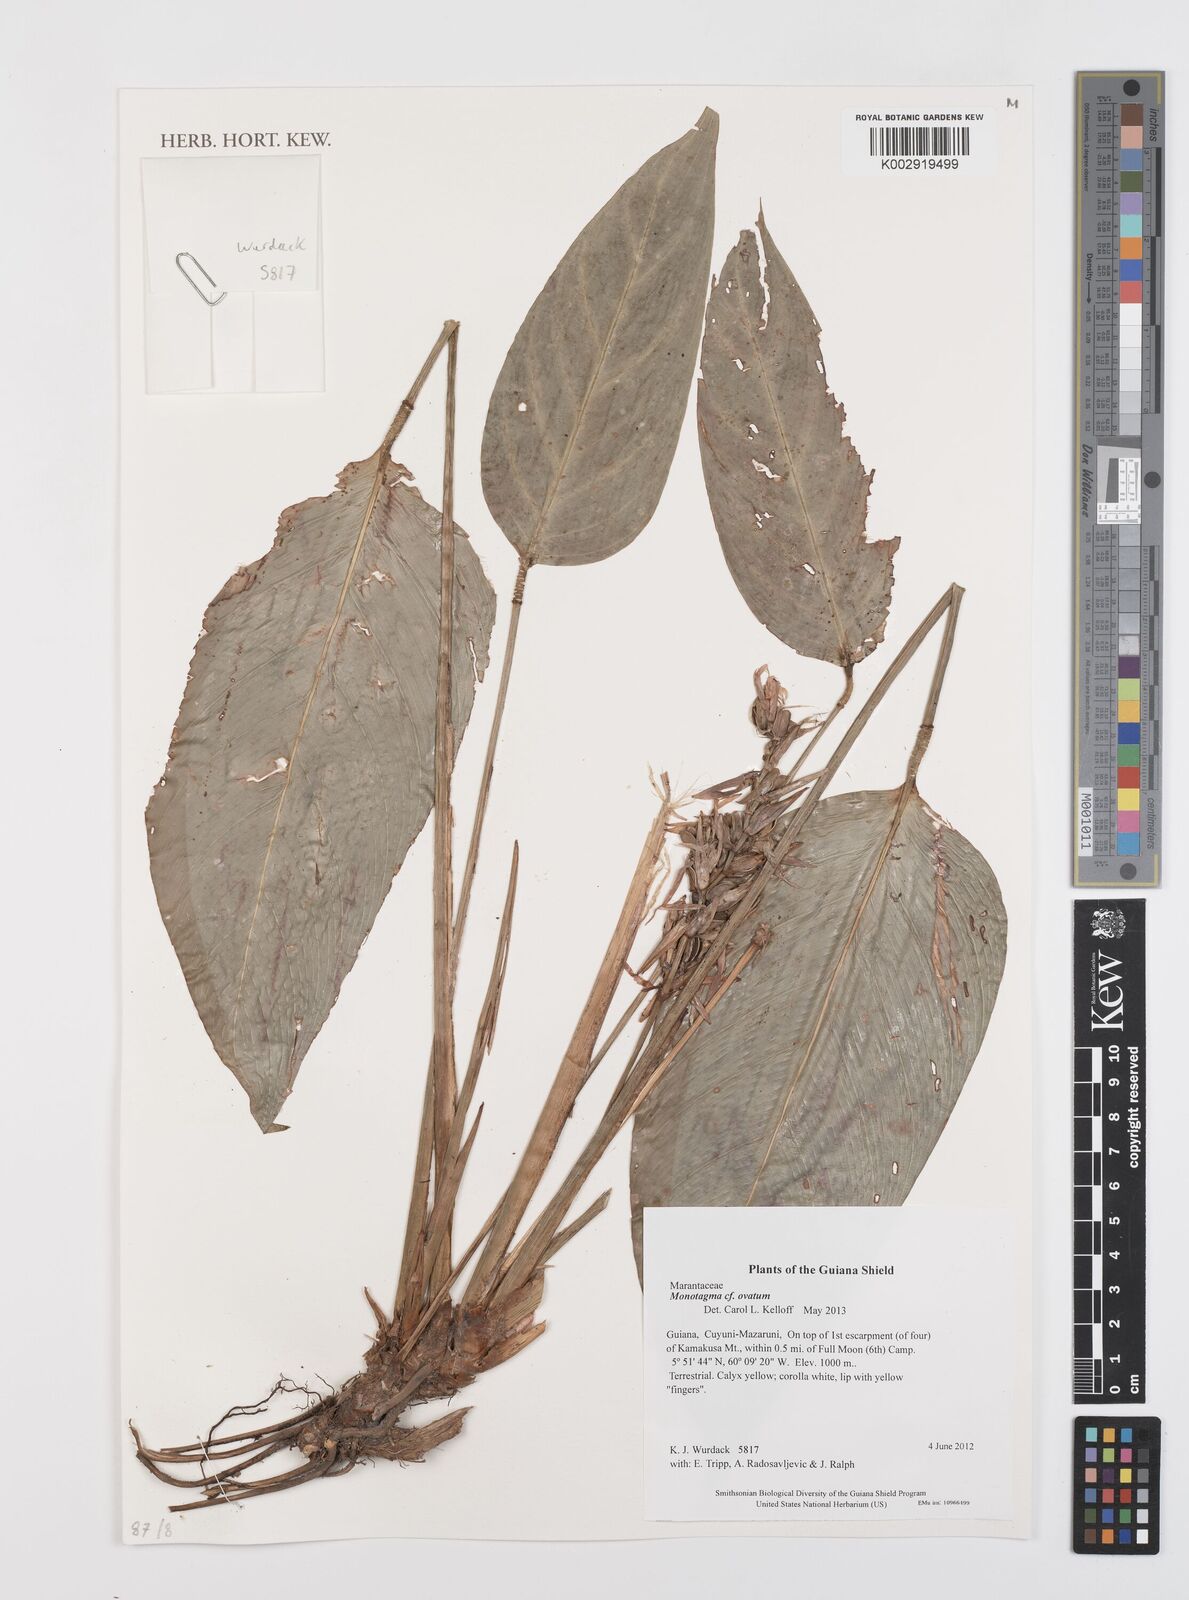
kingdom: Plantae
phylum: Tracheophyta
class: Liliopsida
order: Zingiberales
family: Marantaceae
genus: Monotagma
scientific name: Monotagma ovatum
